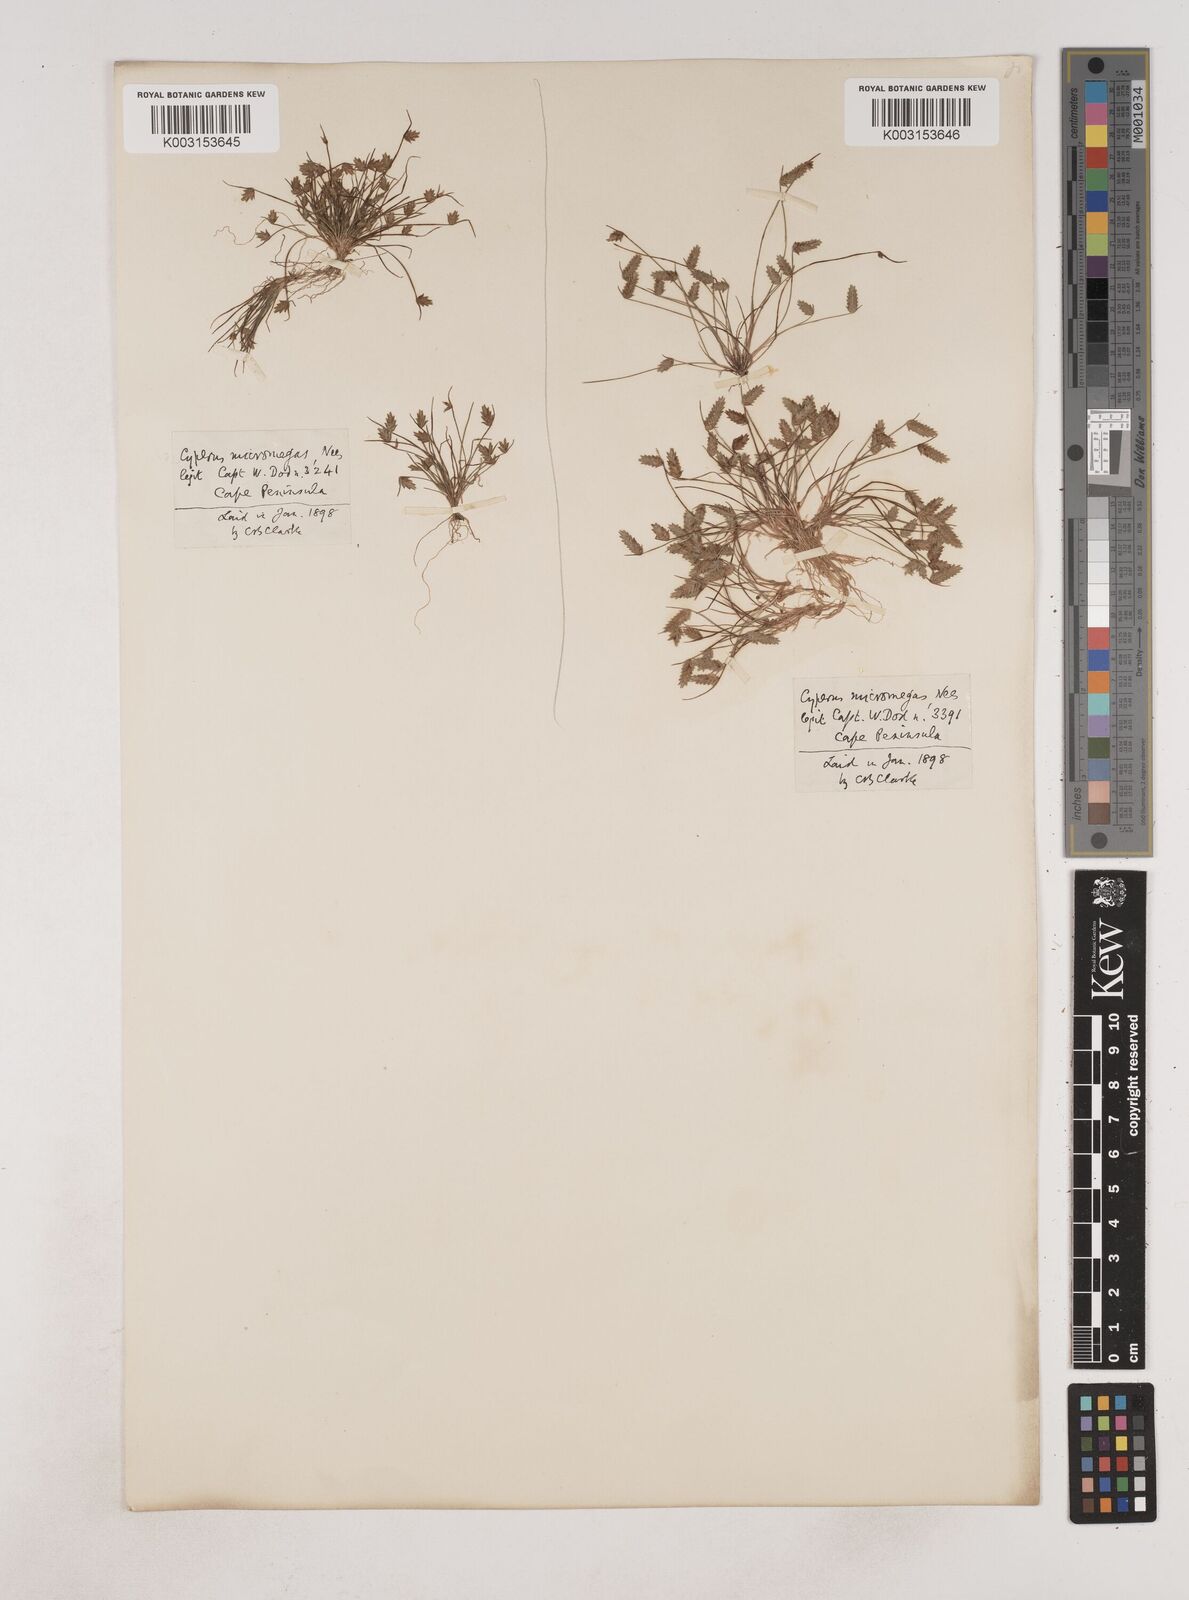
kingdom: Plantae
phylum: Tracheophyta
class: Liliopsida
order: Poales
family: Cyperaceae
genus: Isolepis
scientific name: Isolepis levynsiana
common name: Sedge
